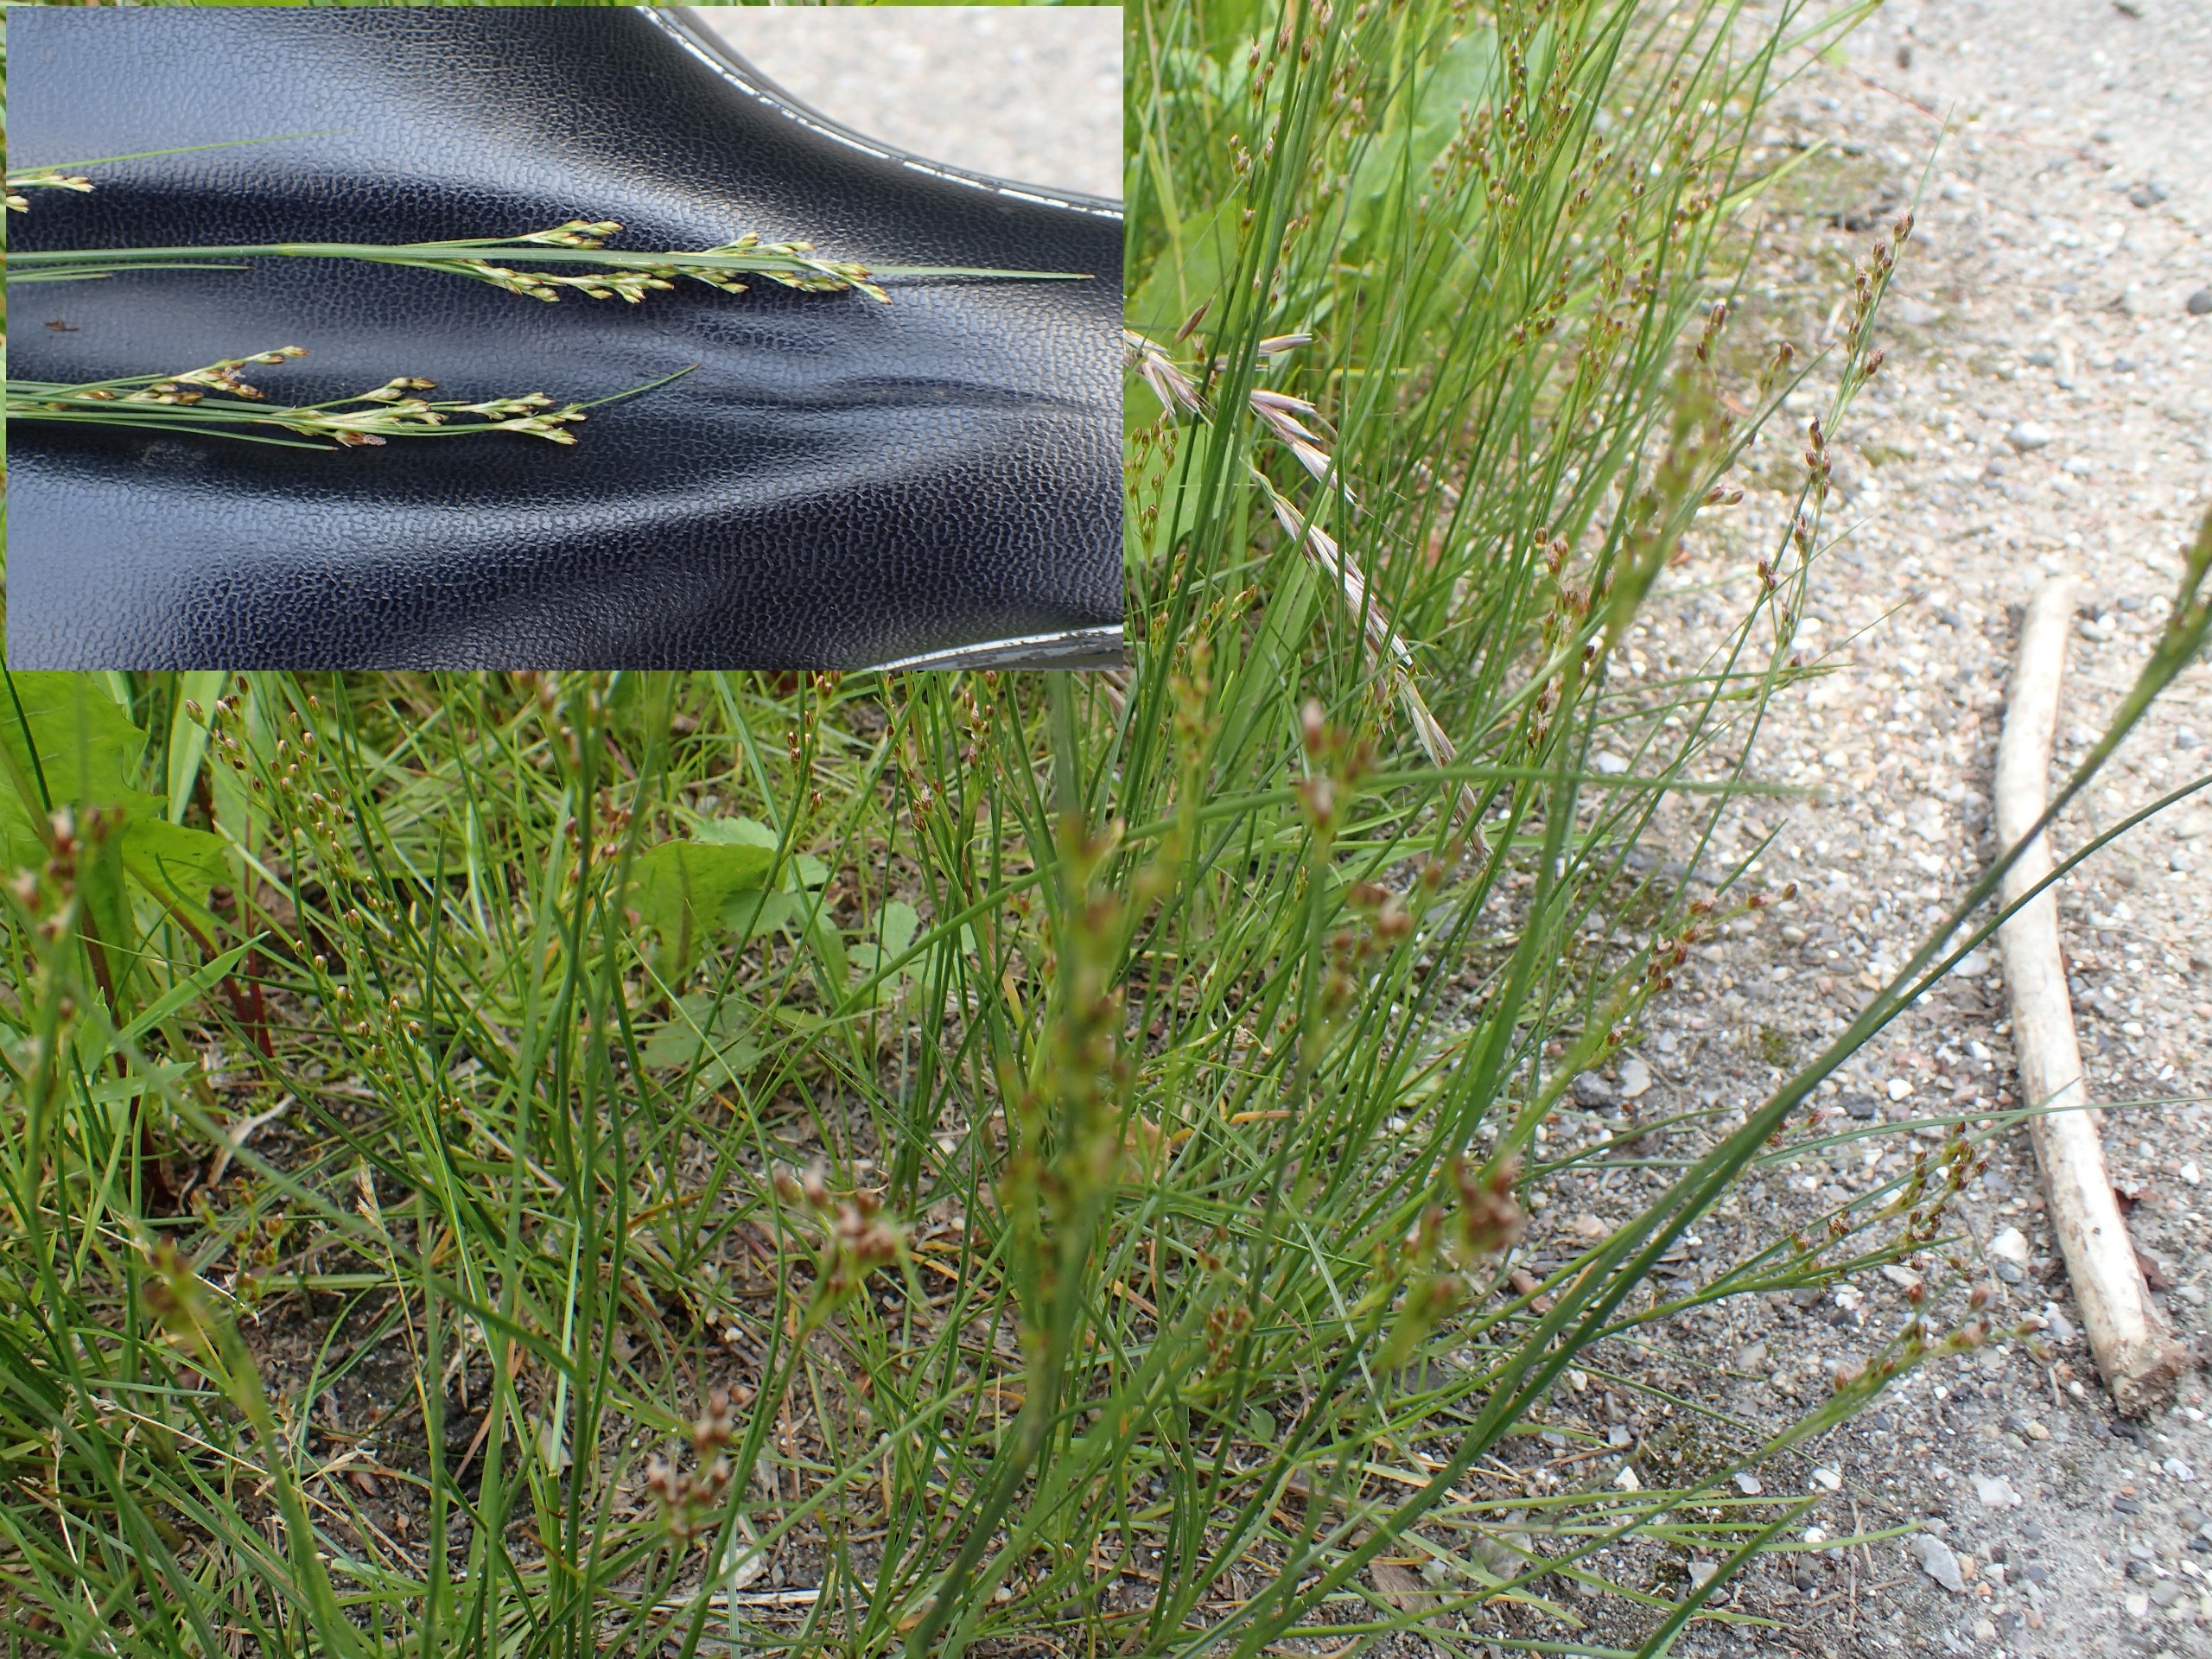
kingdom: Plantae
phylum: Tracheophyta
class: Liliopsida
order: Poales
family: Juncaceae
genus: Juncus
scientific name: Juncus compressus
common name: Fladstrået siv
